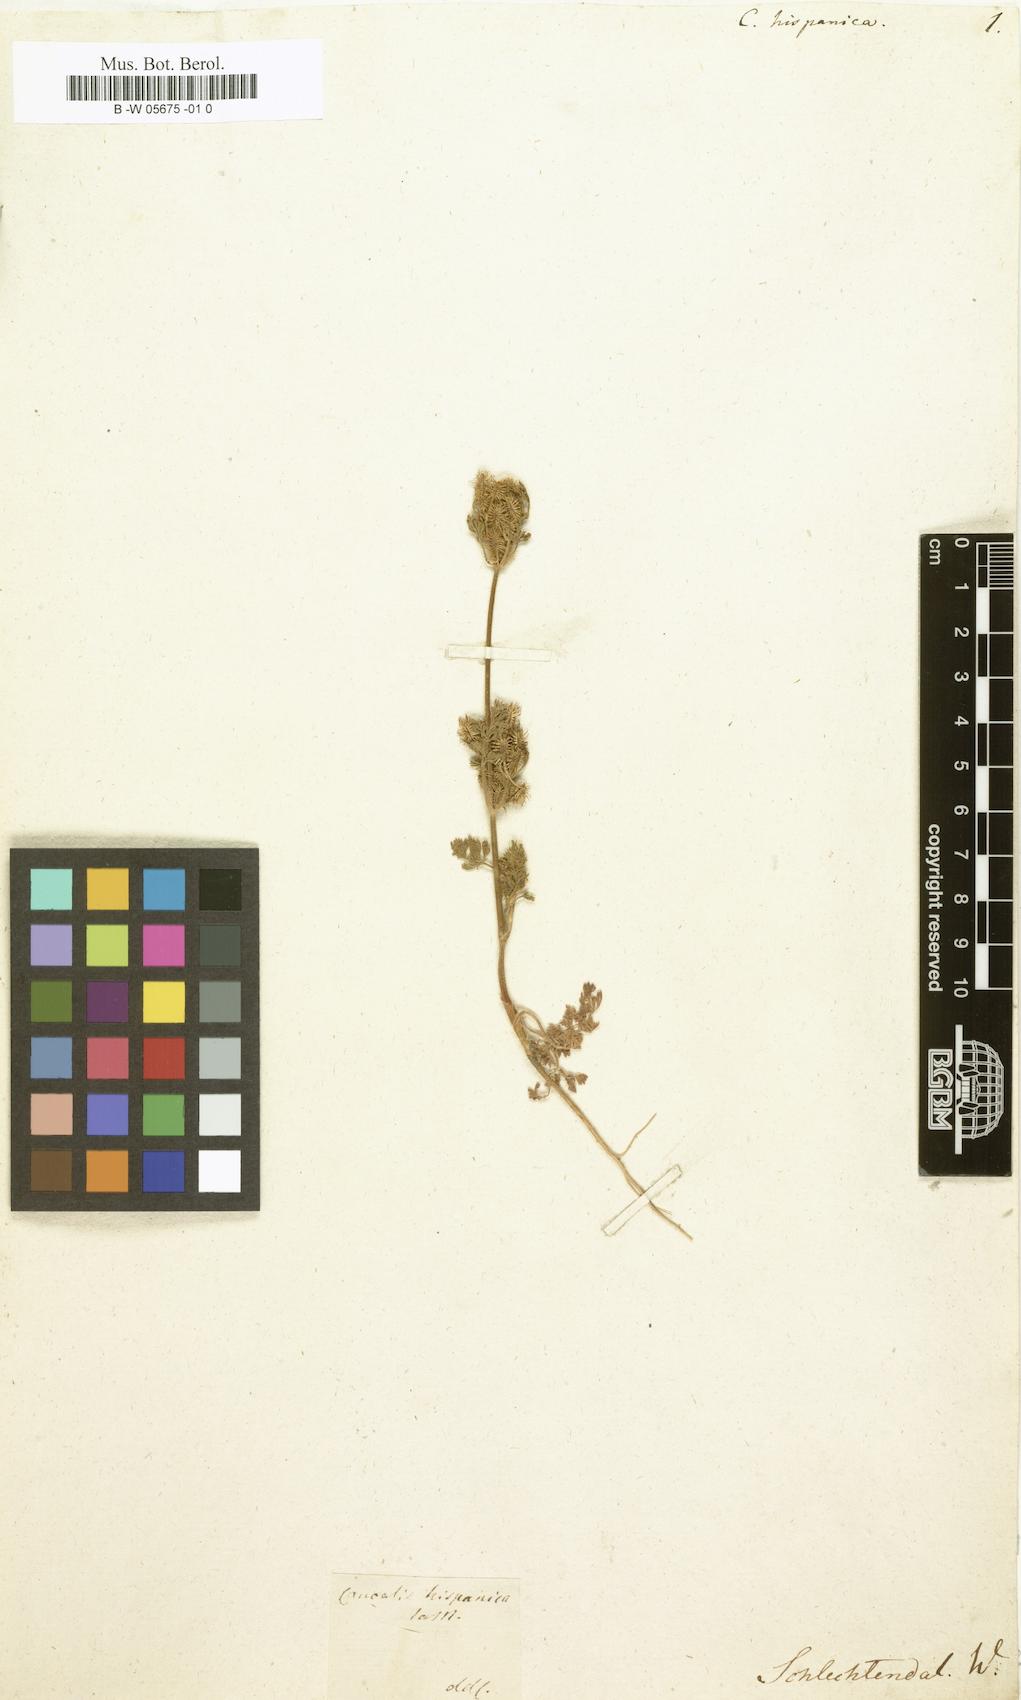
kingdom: Plantae
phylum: Tracheophyta
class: Magnoliopsida
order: Apiales
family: Apiaceae
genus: Daucus
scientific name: Daucus
